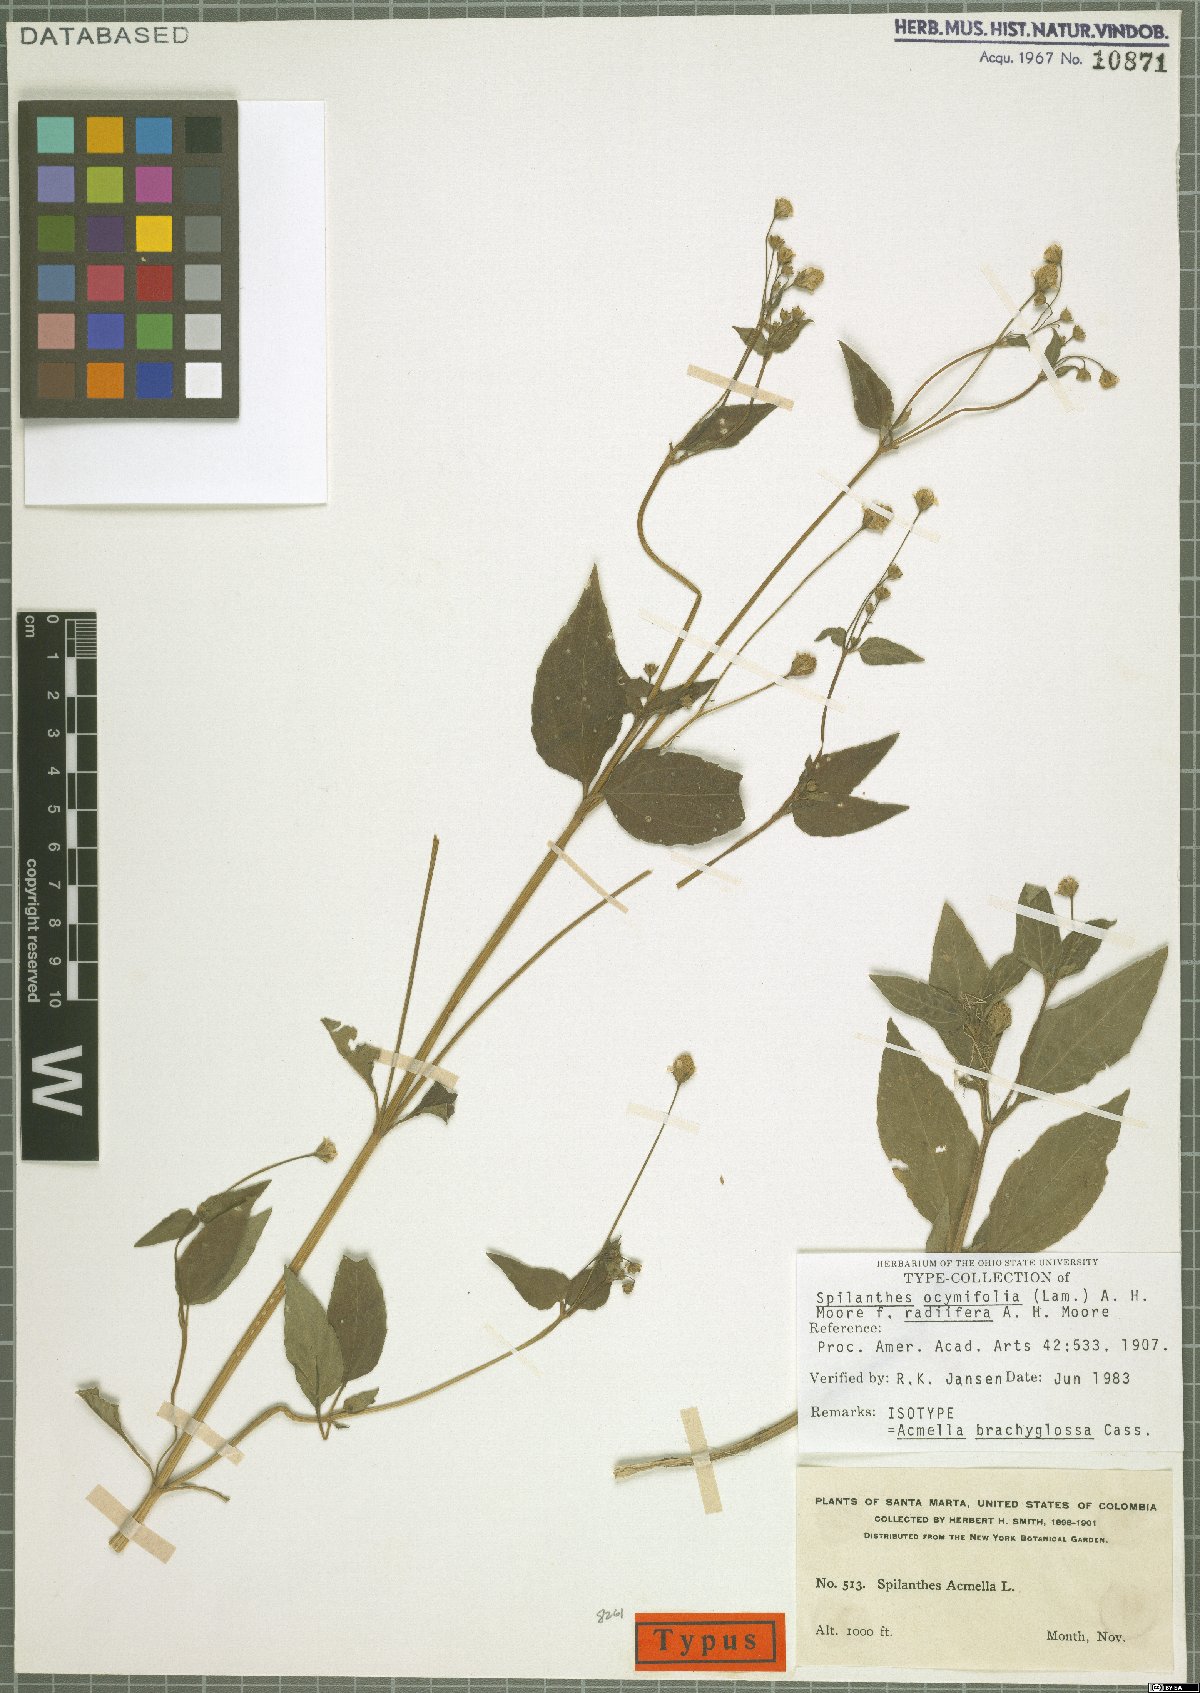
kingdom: Plantae
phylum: Tracheophyta
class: Magnoliopsida
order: Asterales
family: Asteraceae
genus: Acmella
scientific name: Acmella brachyglossa
